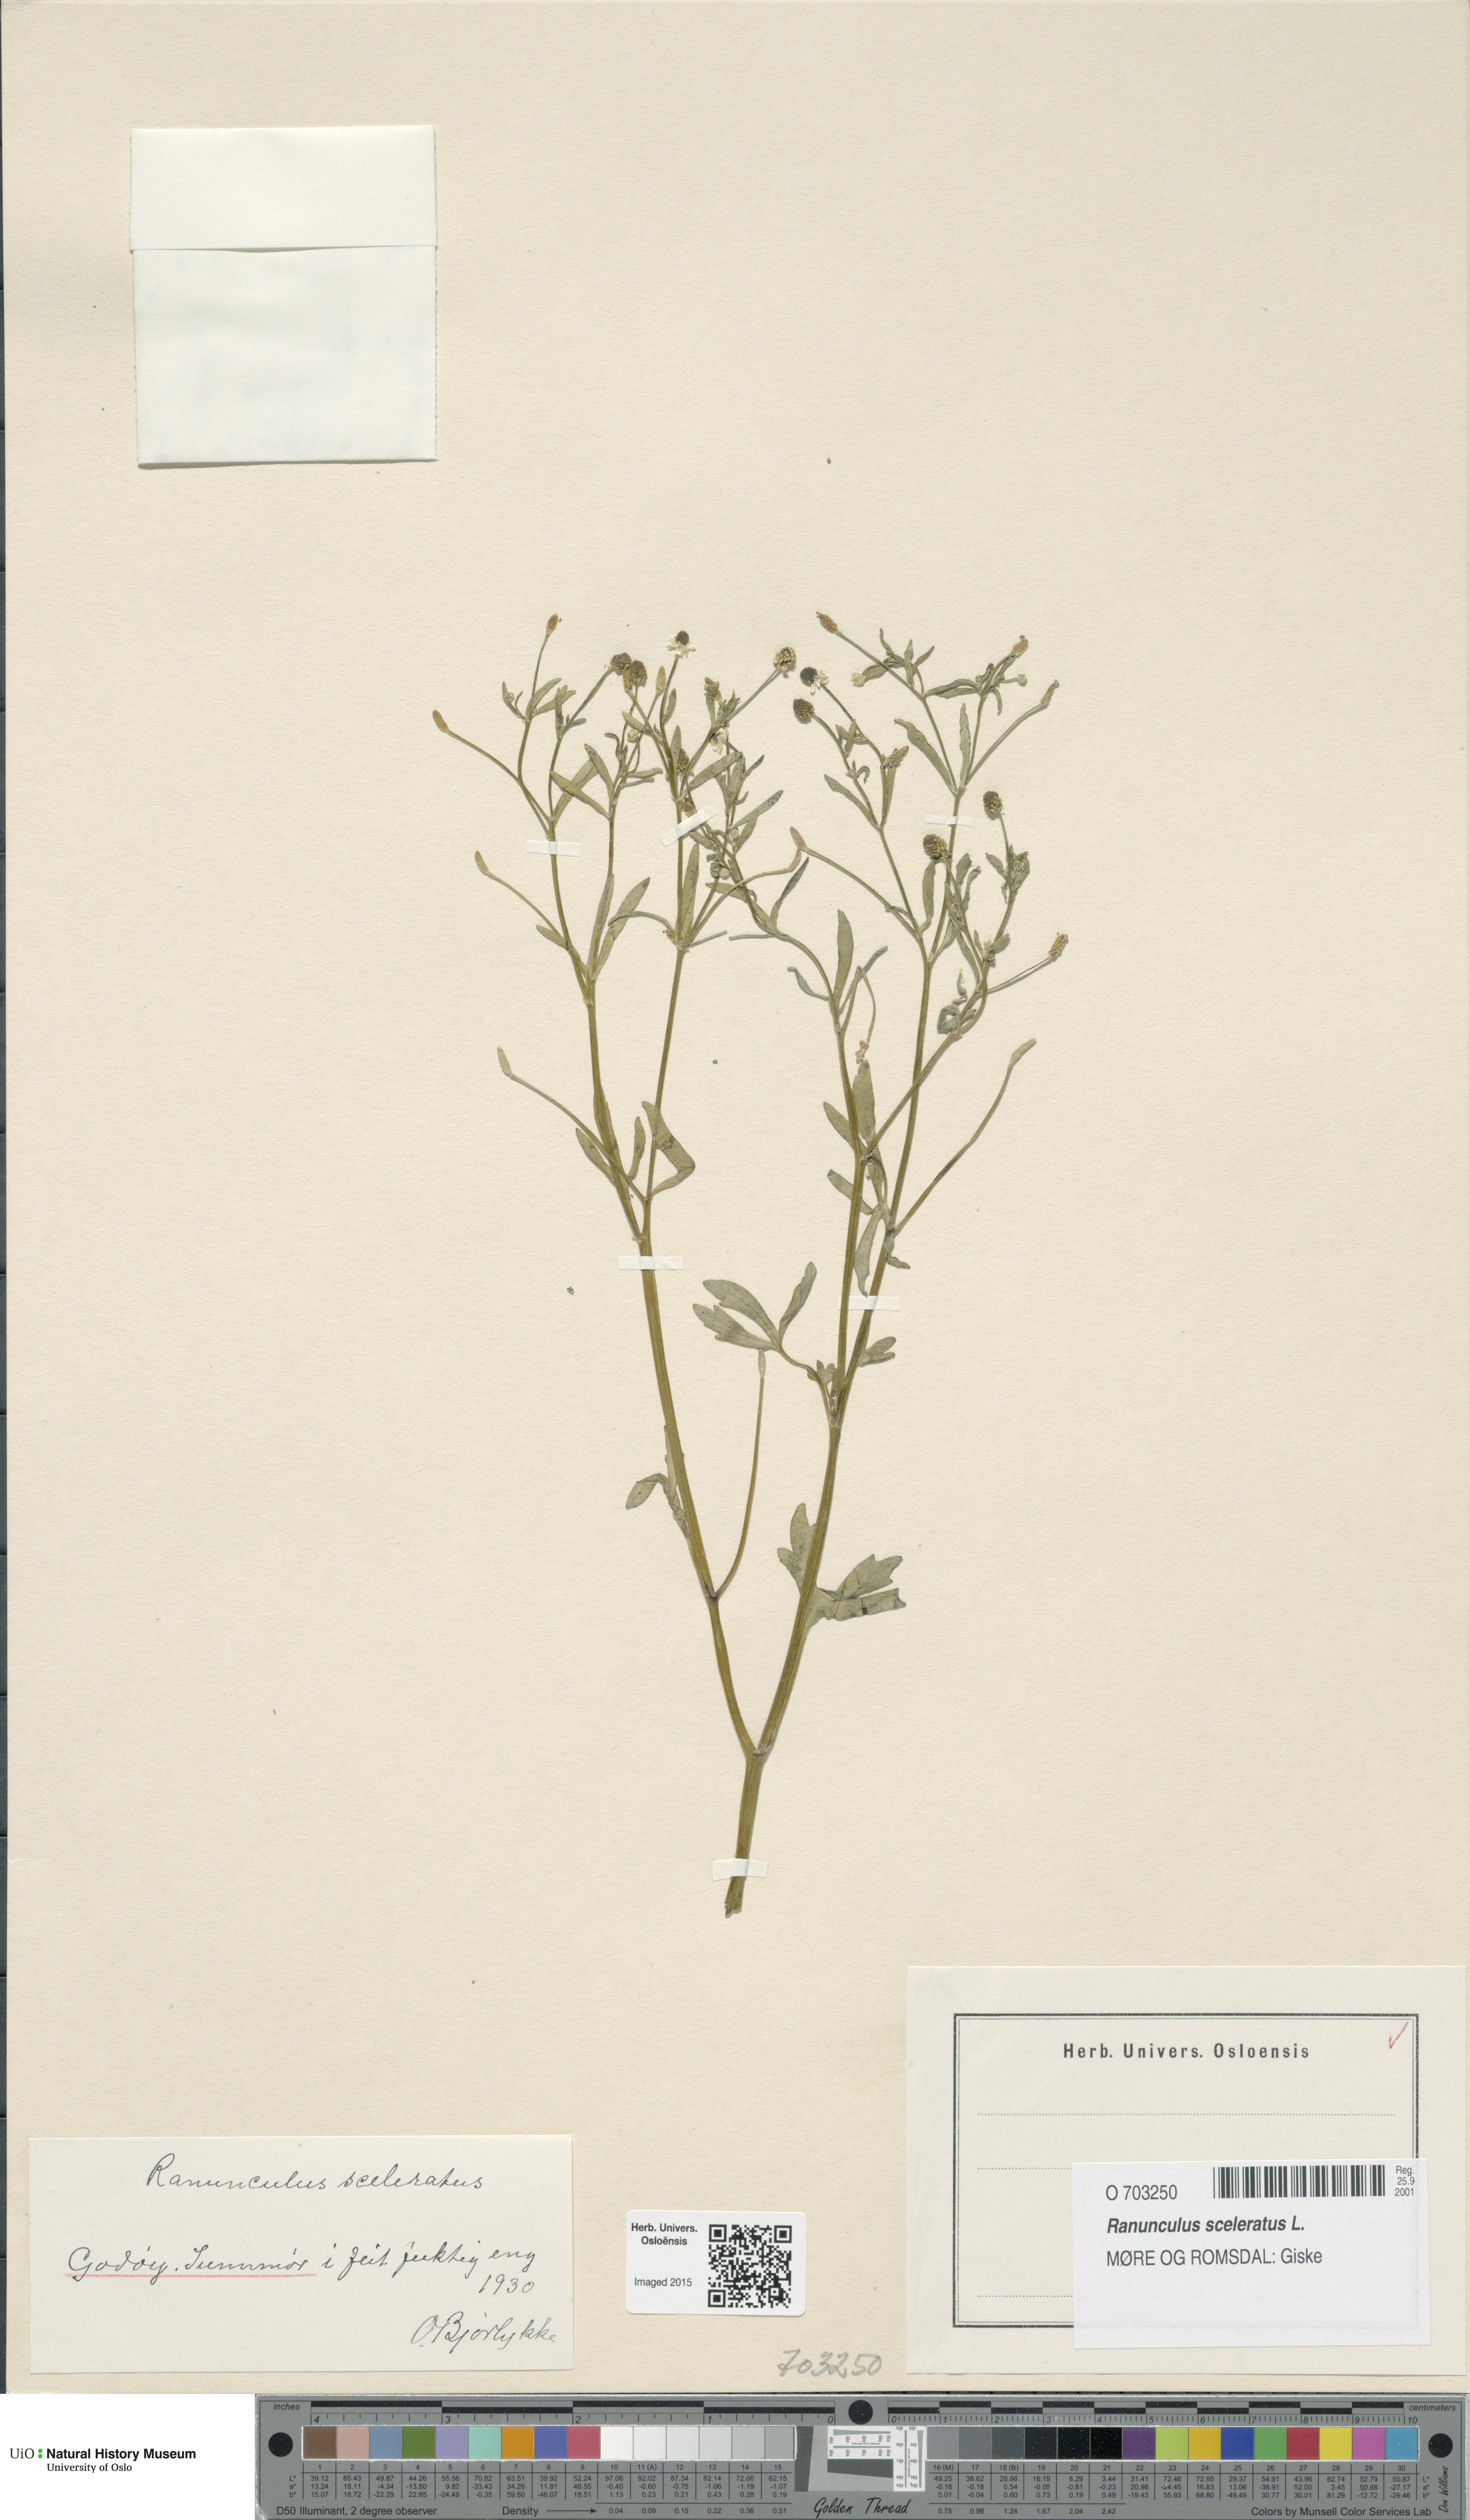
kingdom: Plantae
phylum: Tracheophyta
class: Magnoliopsida
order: Ranunculales
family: Ranunculaceae
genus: Ranunculus
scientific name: Ranunculus sceleratus
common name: Celery-leaved buttercup
